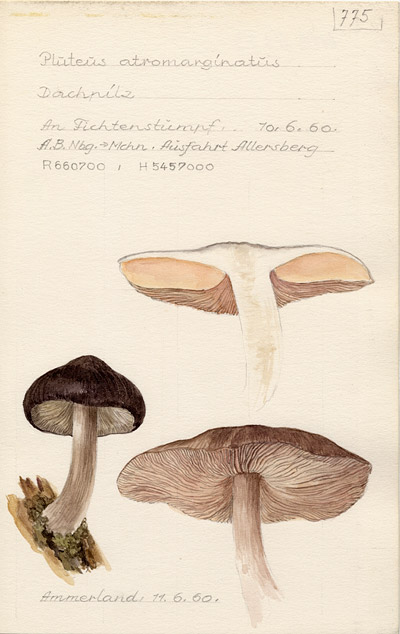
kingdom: Fungi
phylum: Basidiomycota
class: Agaricomycetes
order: Agaricales
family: Pluteaceae
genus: Pluteus
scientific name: Pluteus atromarginatus
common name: Blackedged shield
